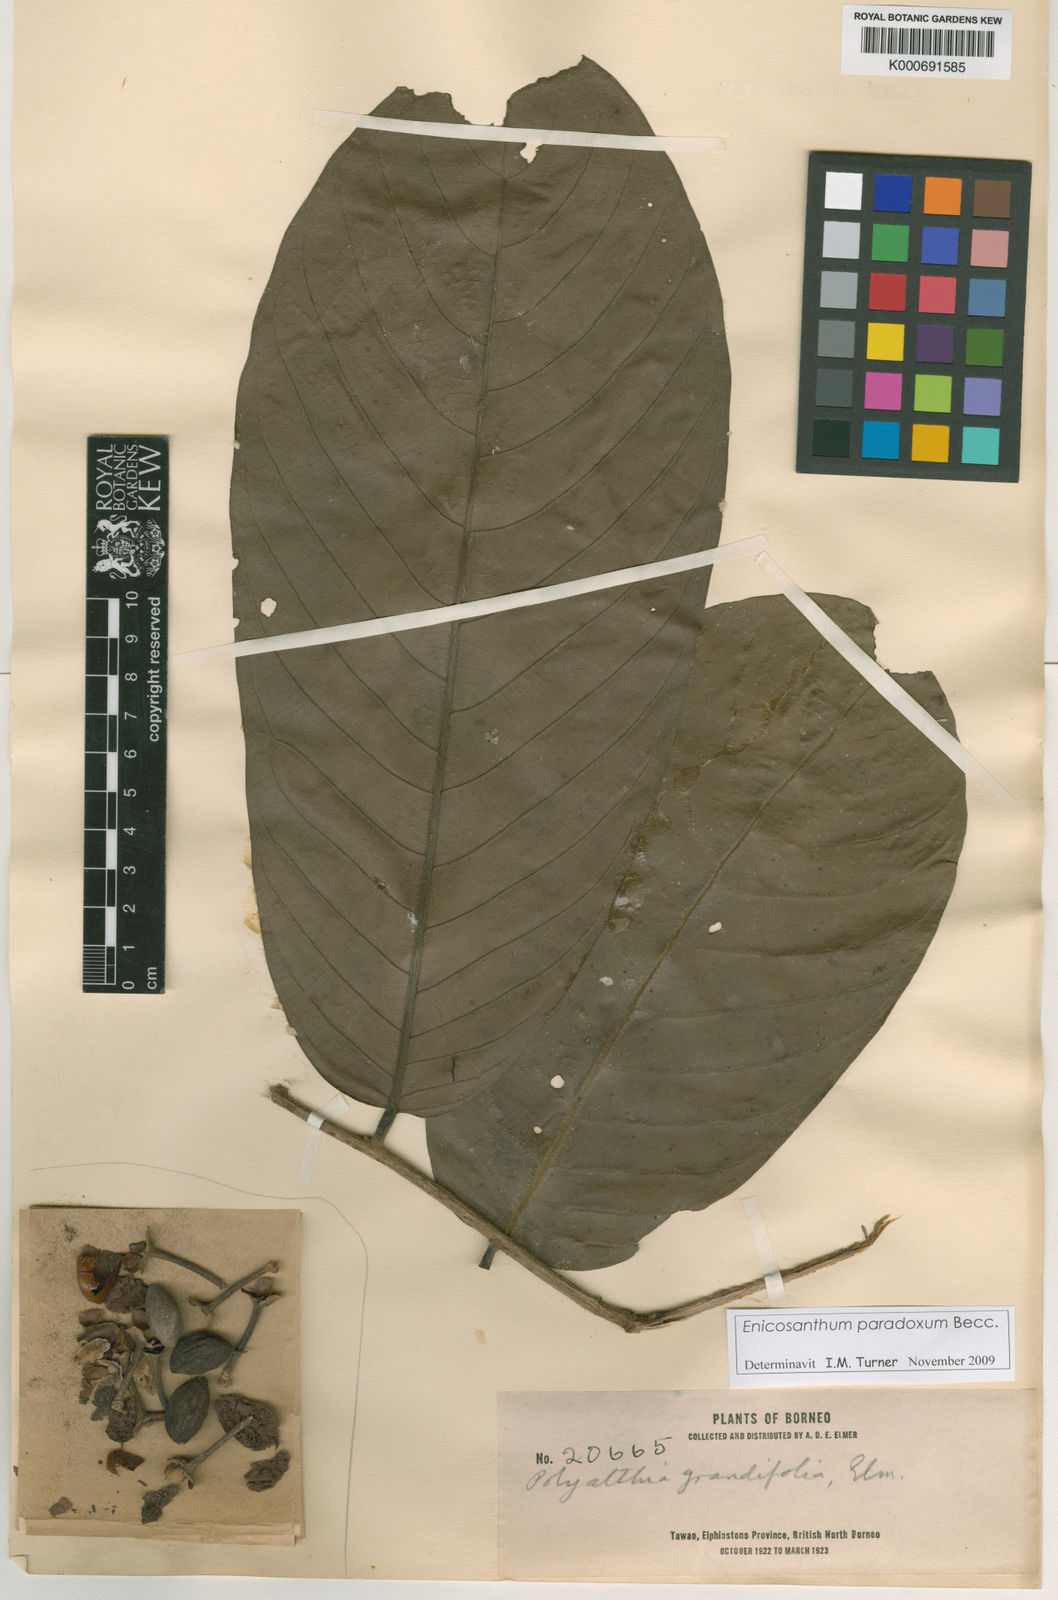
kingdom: Plantae
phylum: Tracheophyta
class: Magnoliopsida
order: Magnoliales
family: Annonaceae
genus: Enicosanthum
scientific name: Enicosanthum grandifolium
